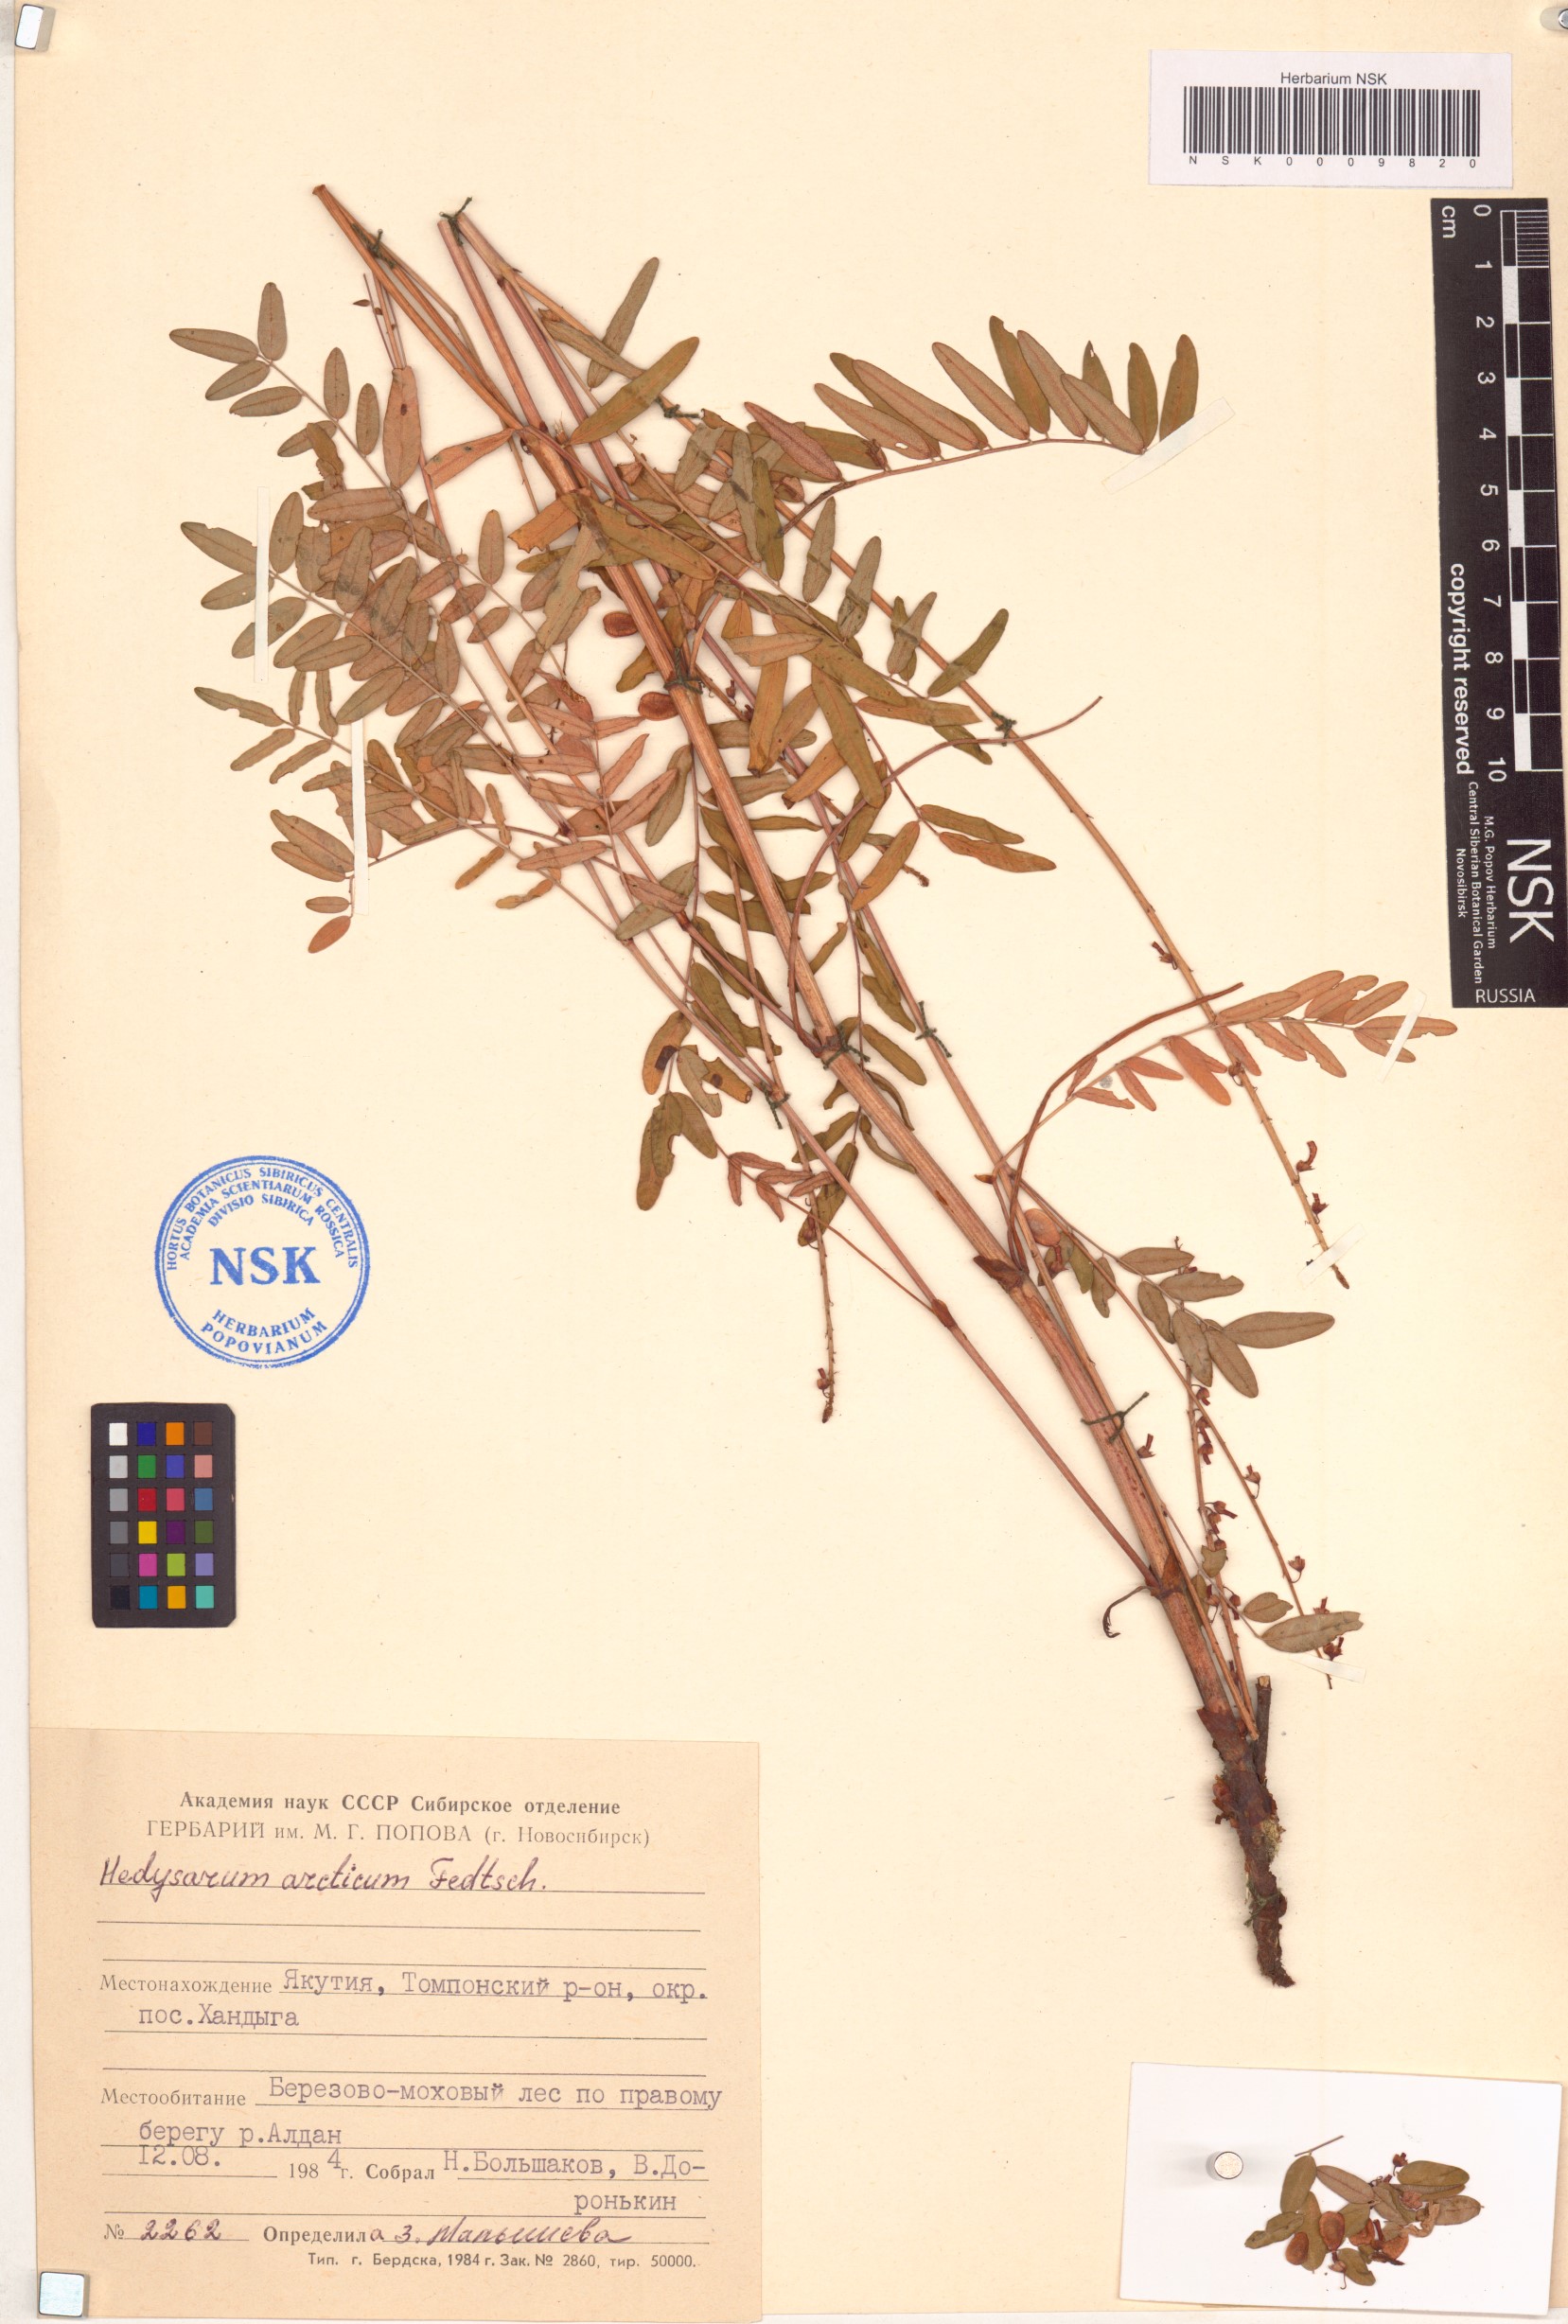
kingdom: Plantae
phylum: Tracheophyta
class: Magnoliopsida
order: Fabales
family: Fabaceae
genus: Hedysarum
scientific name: Hedysarum hedysaroides
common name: Alpine french-honeysuckle
